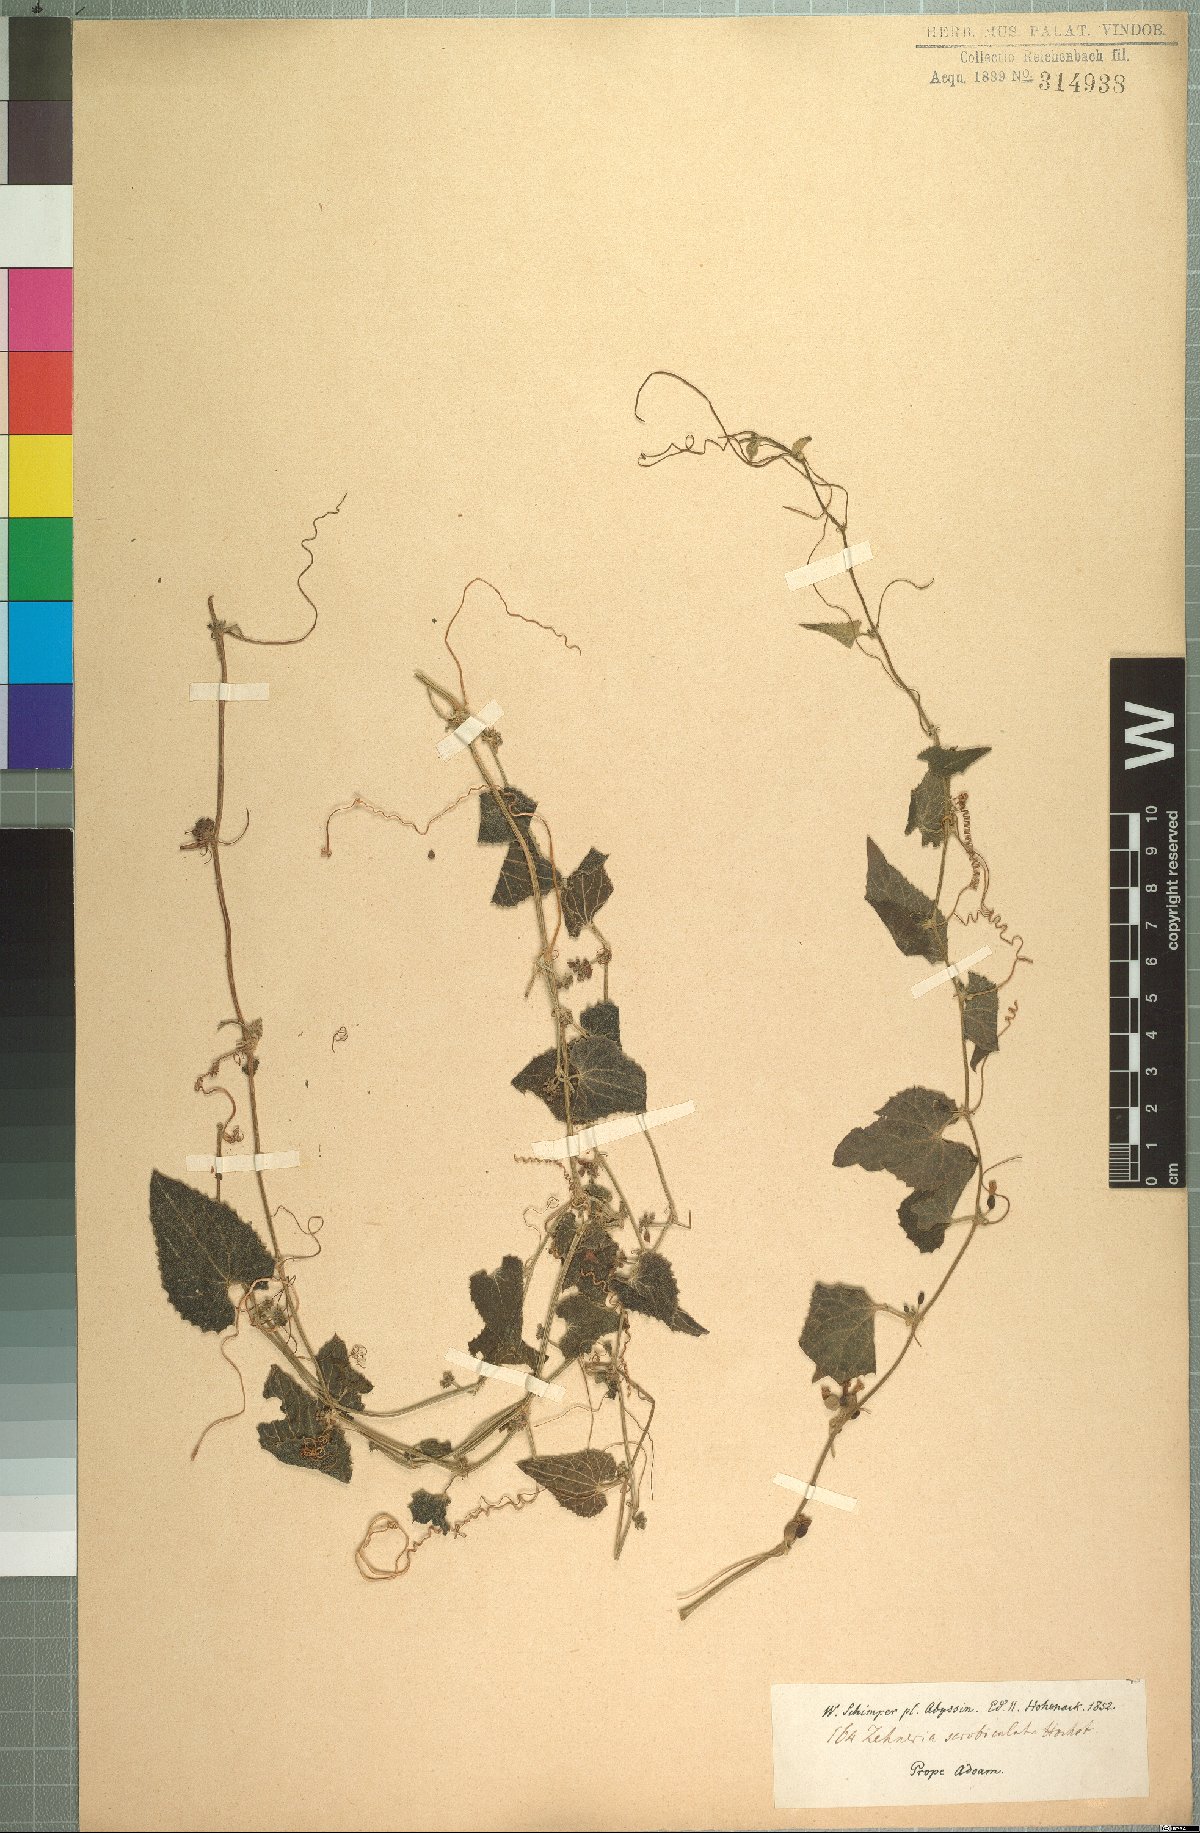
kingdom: Plantae
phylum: Tracheophyta
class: Magnoliopsida
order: Cucurbitales
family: Cucurbitaceae
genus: Zehneria
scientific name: Zehneria scabra
